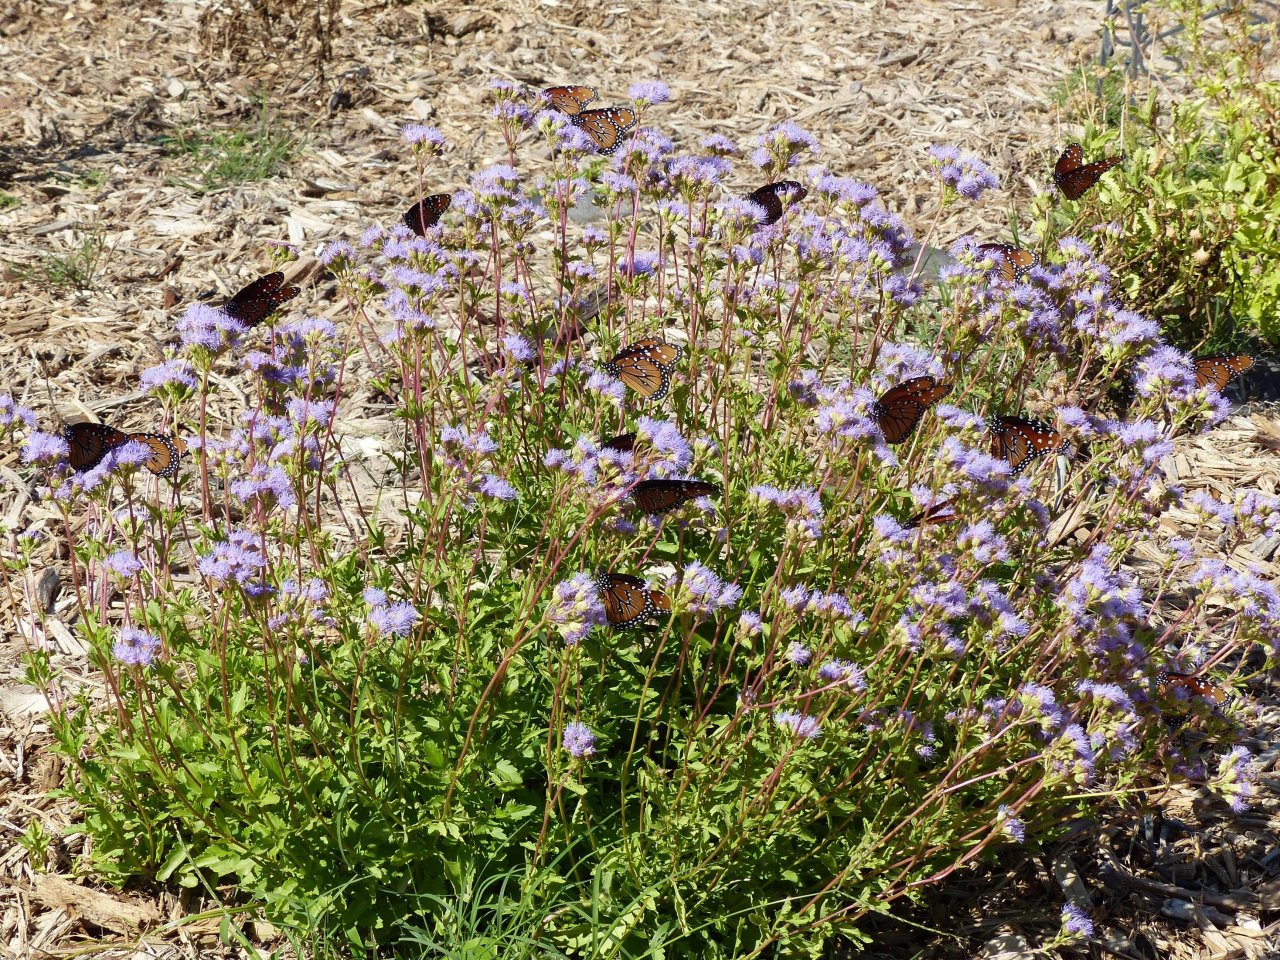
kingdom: Animalia
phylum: Arthropoda
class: Insecta
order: Lepidoptera
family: Nymphalidae
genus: Danaus
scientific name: Danaus gilippus
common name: Queen
